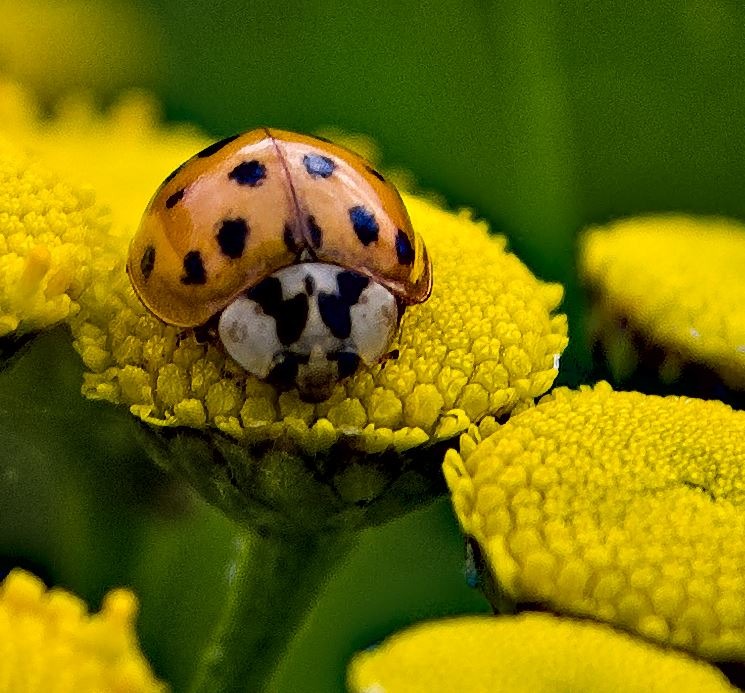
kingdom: Animalia
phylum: Arthropoda
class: Insecta
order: Coleoptera
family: Coccinellidae
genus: Harmonia
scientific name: Harmonia axyridis
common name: Harlekinmariehøne
